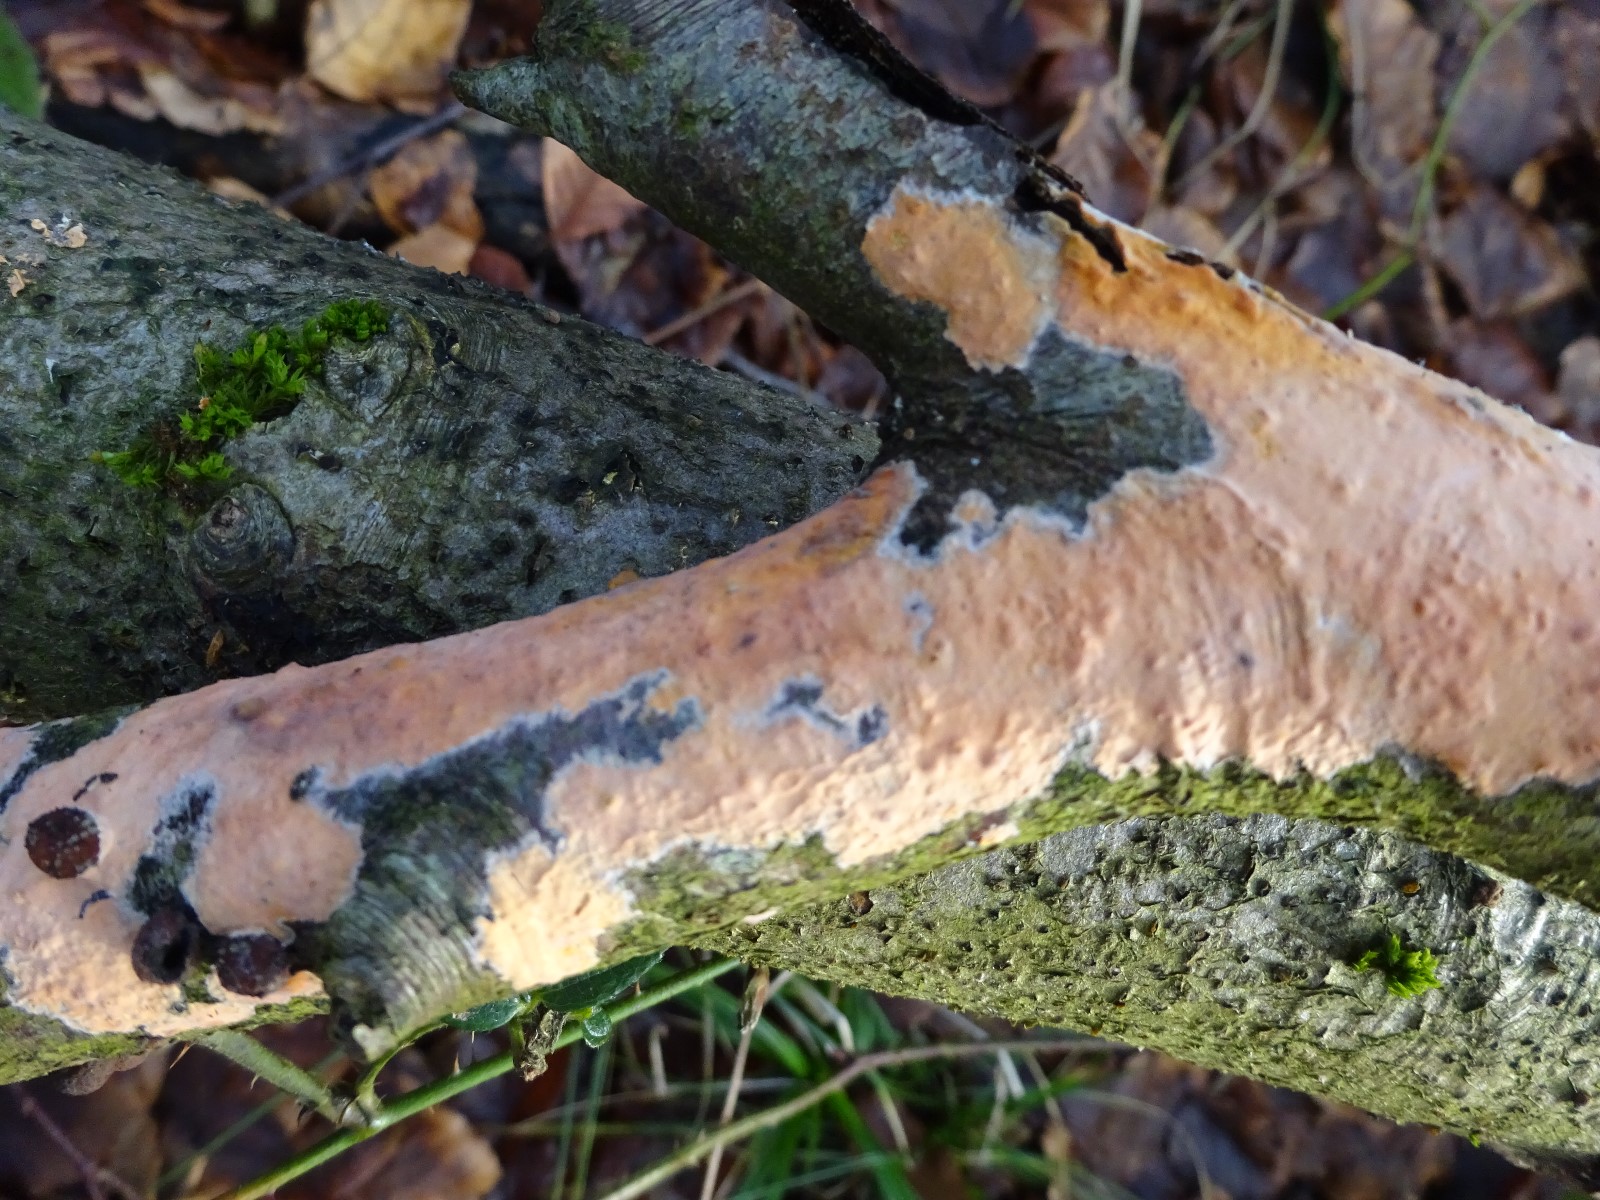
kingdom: Fungi
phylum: Basidiomycota
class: Agaricomycetes
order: Russulales
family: Peniophoraceae
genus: Peniophora
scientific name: Peniophora incarnata
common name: laksefarvet voksskind
